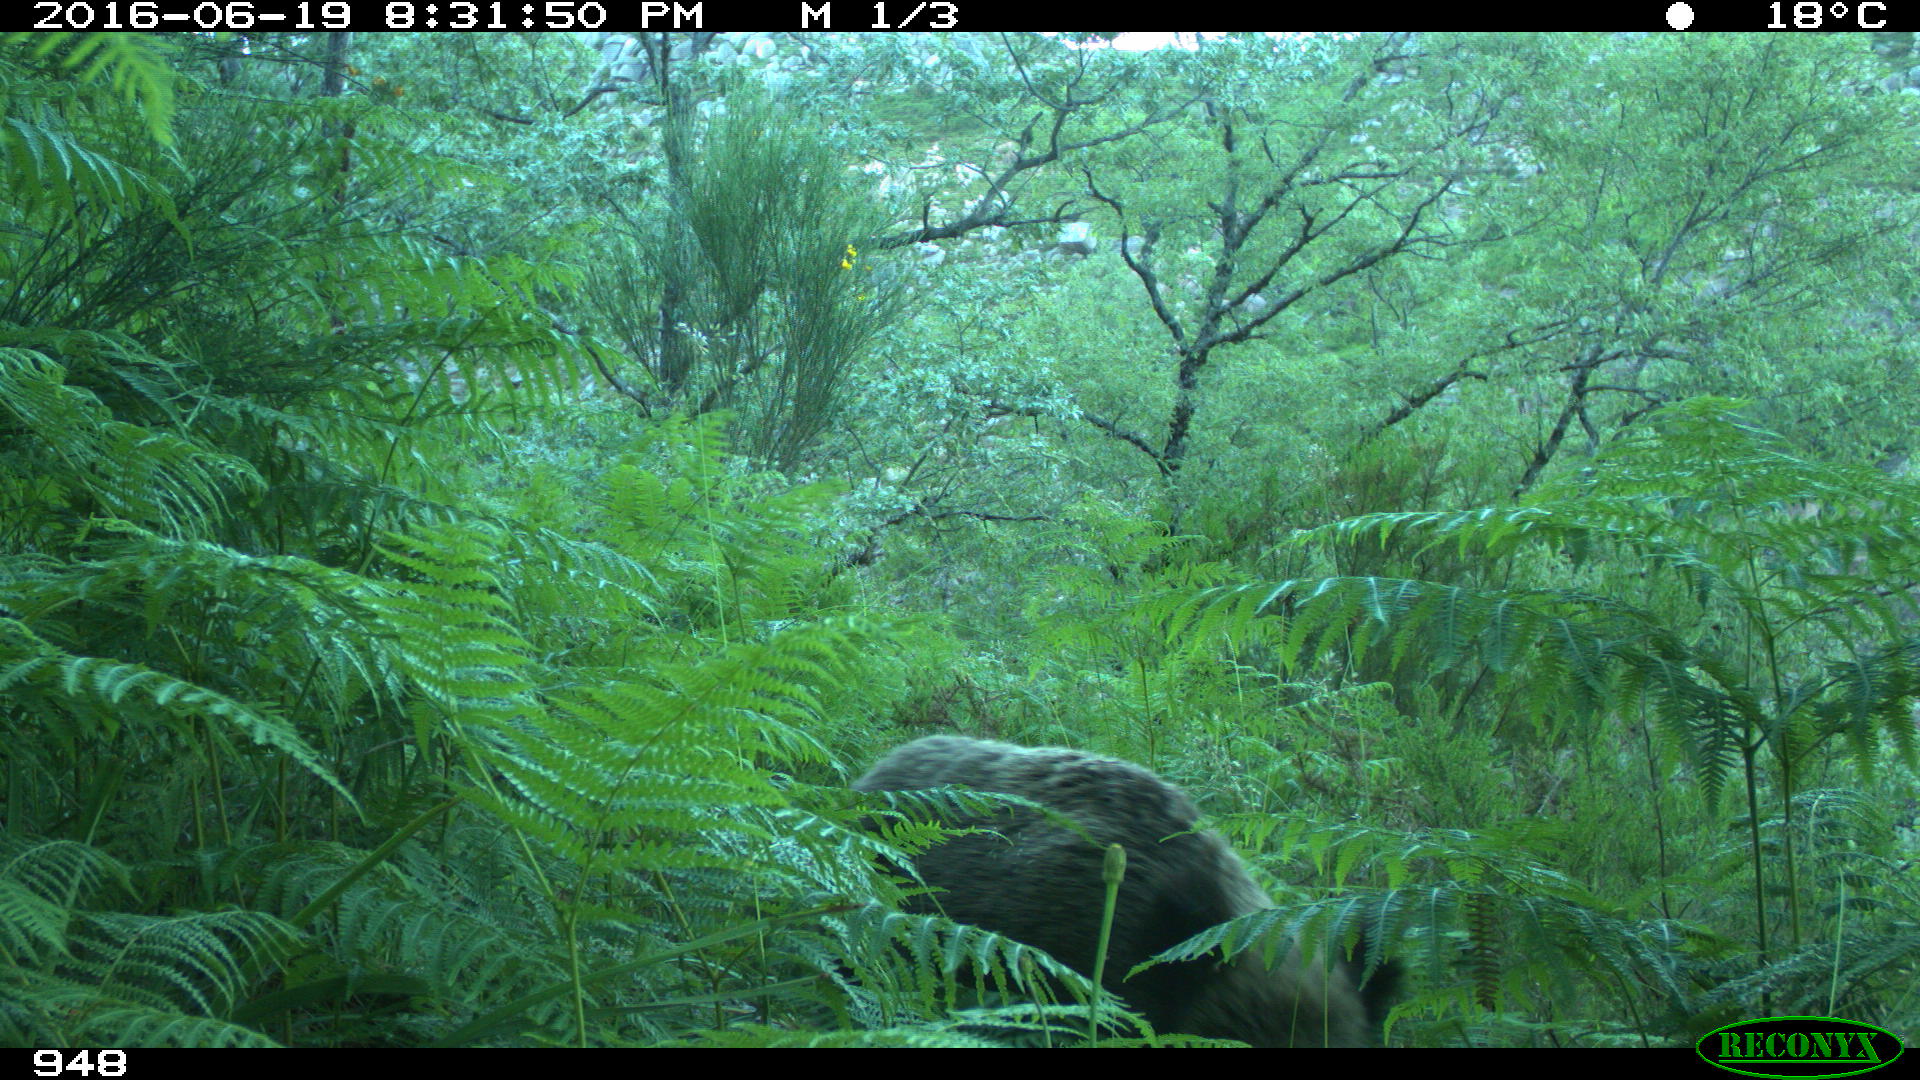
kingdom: Animalia
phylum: Chordata
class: Mammalia
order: Artiodactyla
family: Suidae
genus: Sus
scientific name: Sus scrofa
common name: Wild boar
